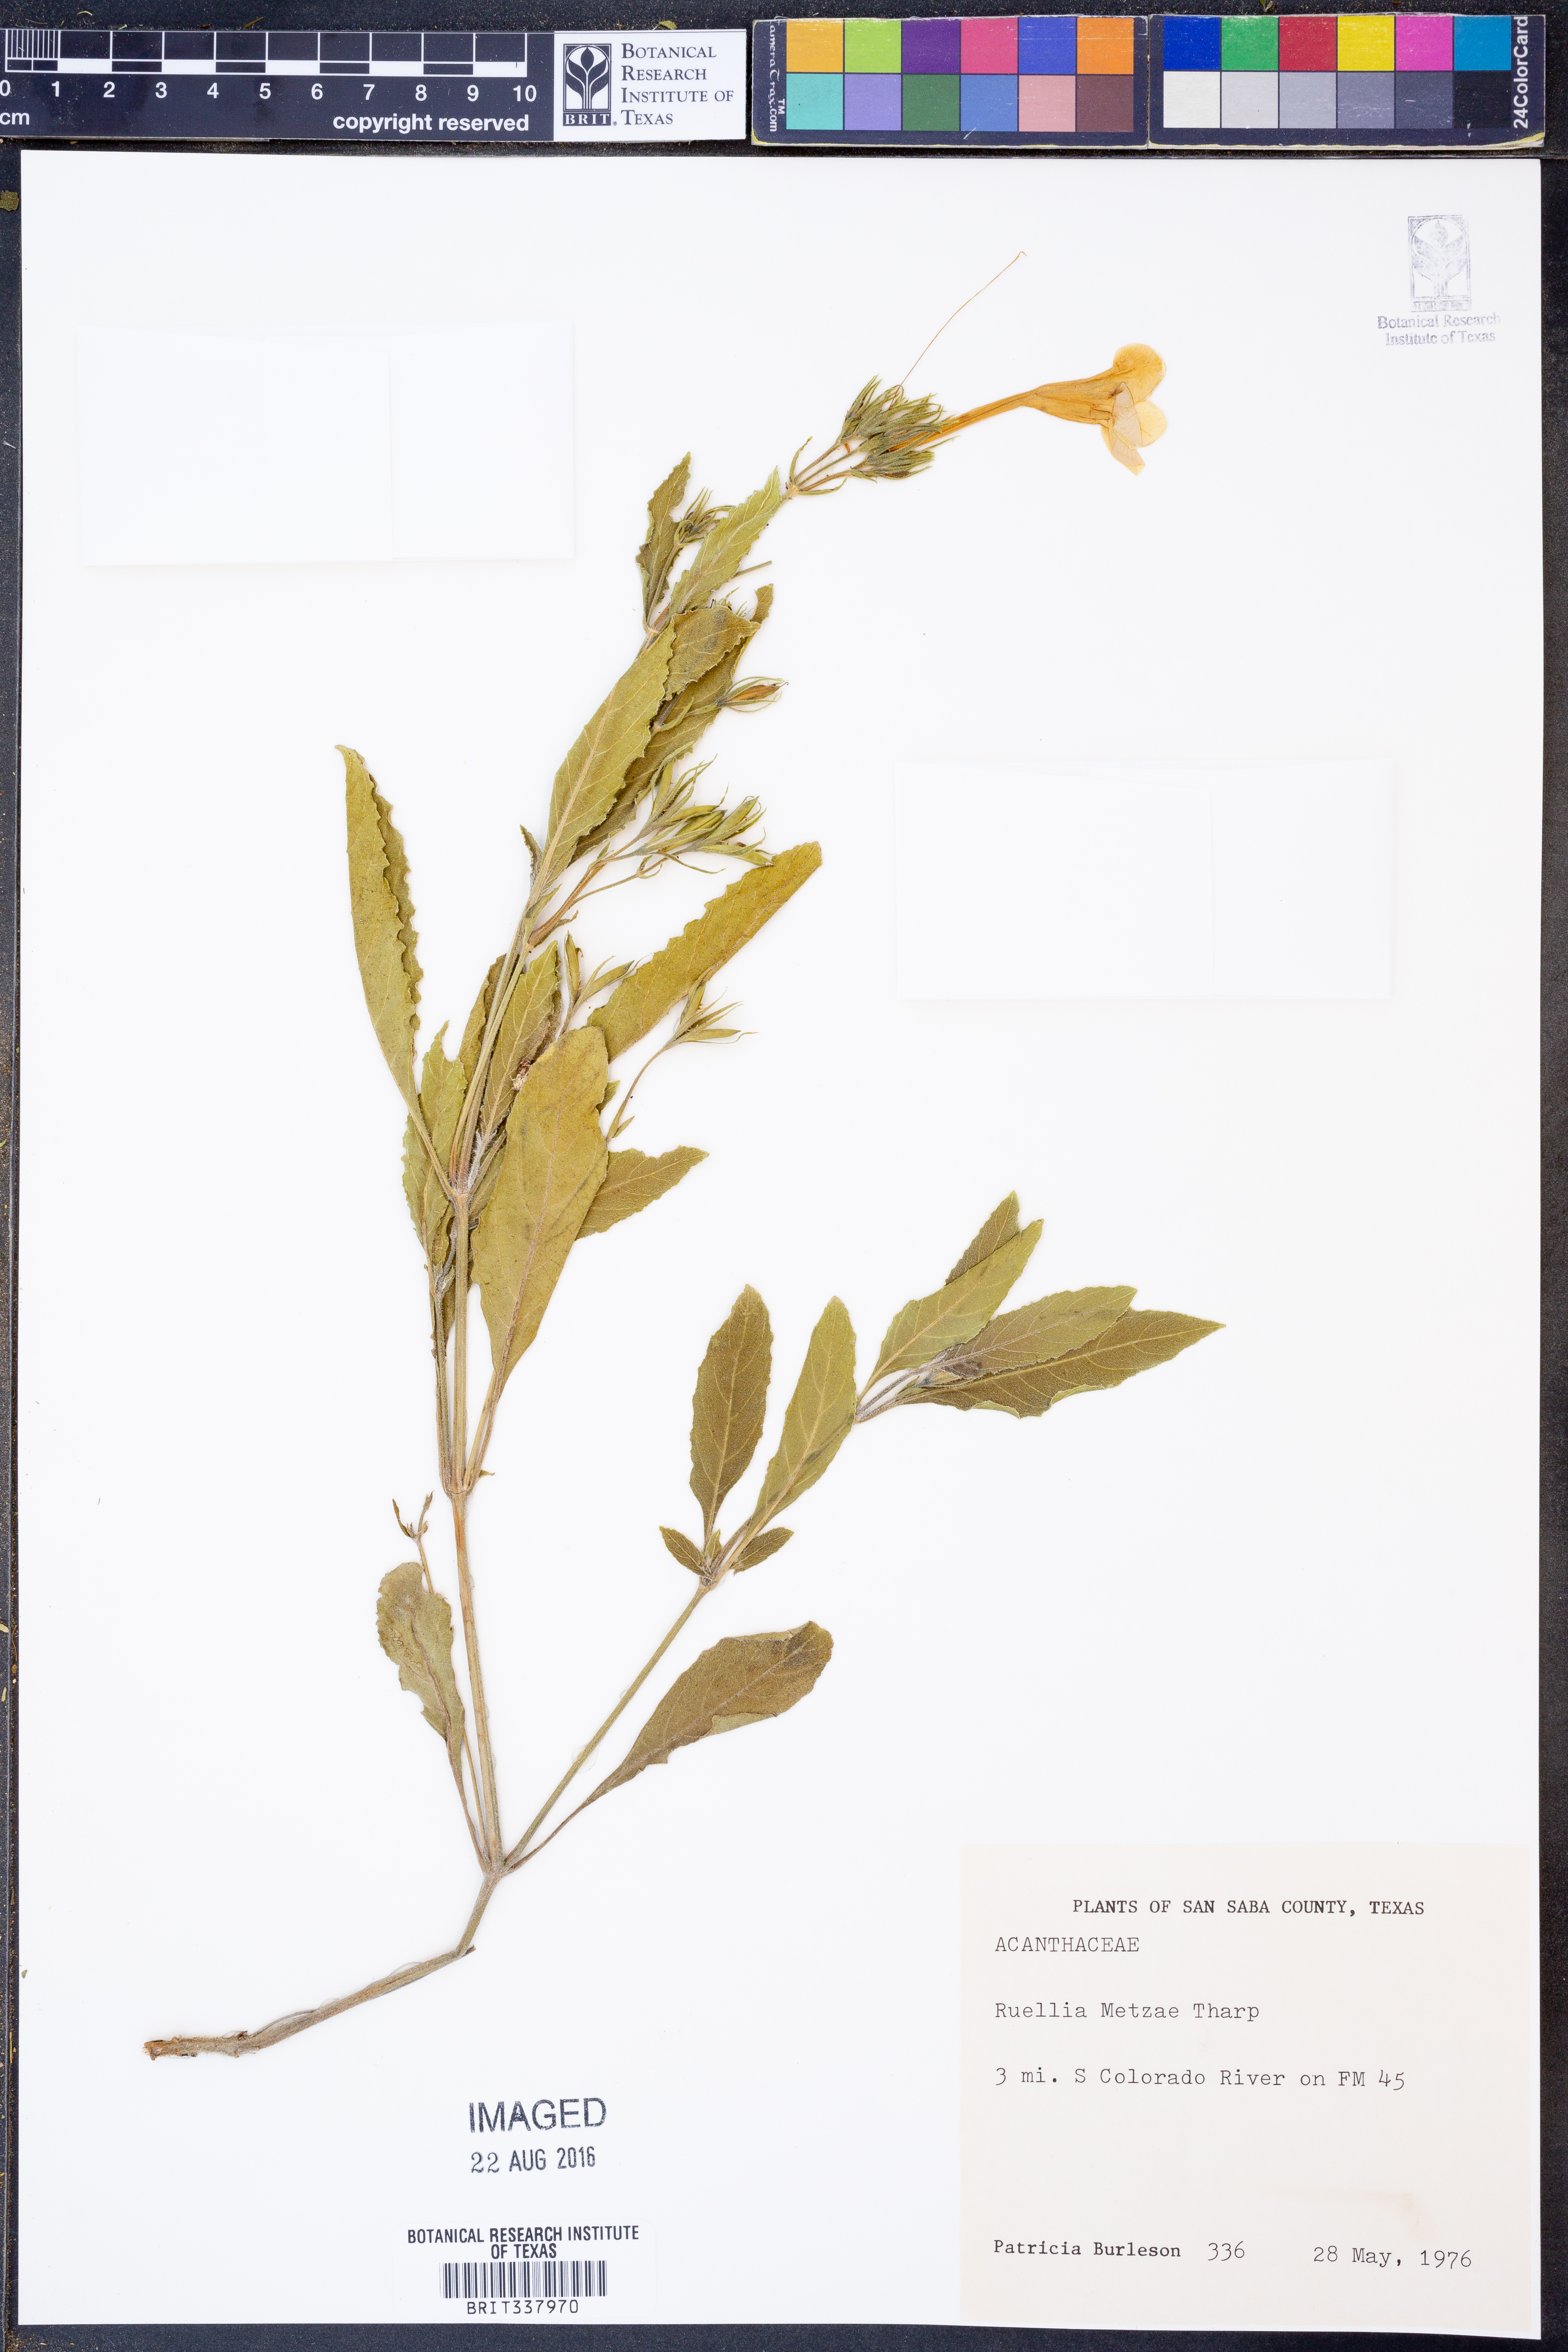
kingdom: Plantae
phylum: Tracheophyta
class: Magnoliopsida
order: Lamiales
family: Acanthaceae
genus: Ruellia
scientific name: Ruellia metzae
